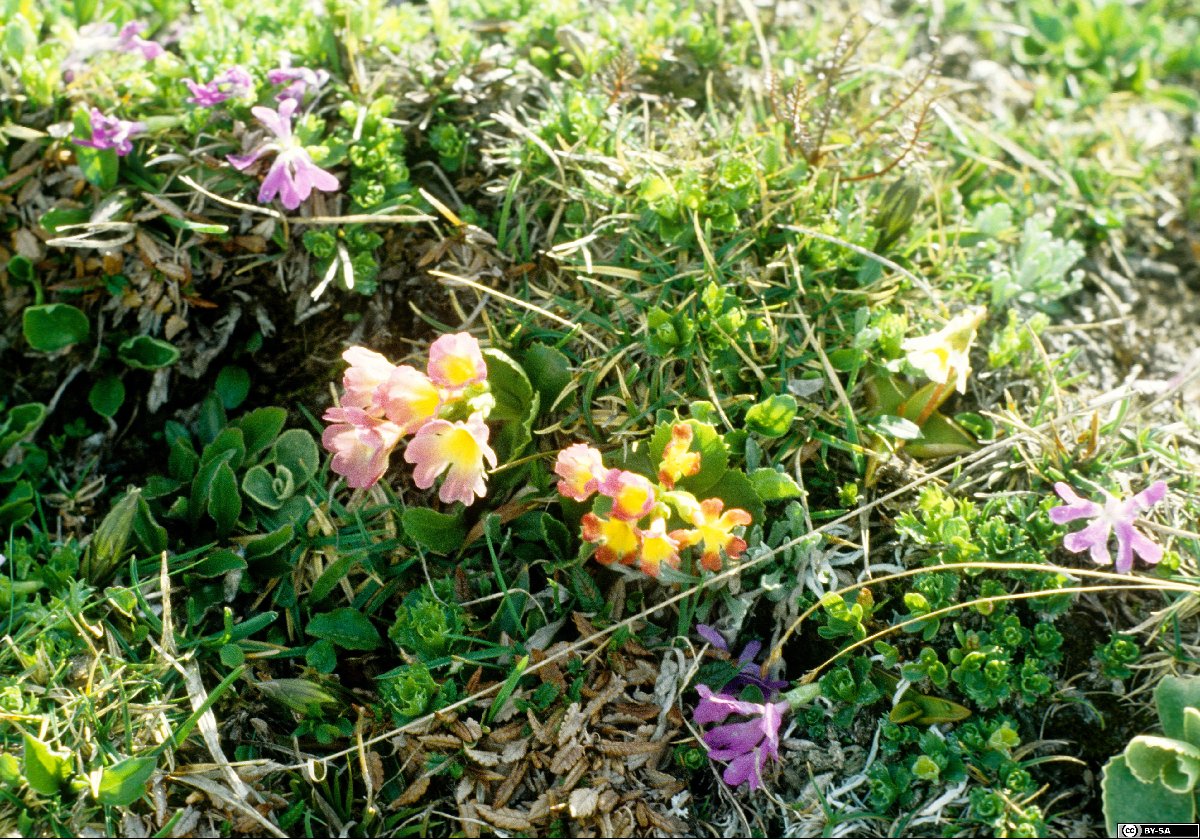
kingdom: Plantae
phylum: Tracheophyta
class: Magnoliopsida
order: Ericales
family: Primulaceae
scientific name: Primulaceae
